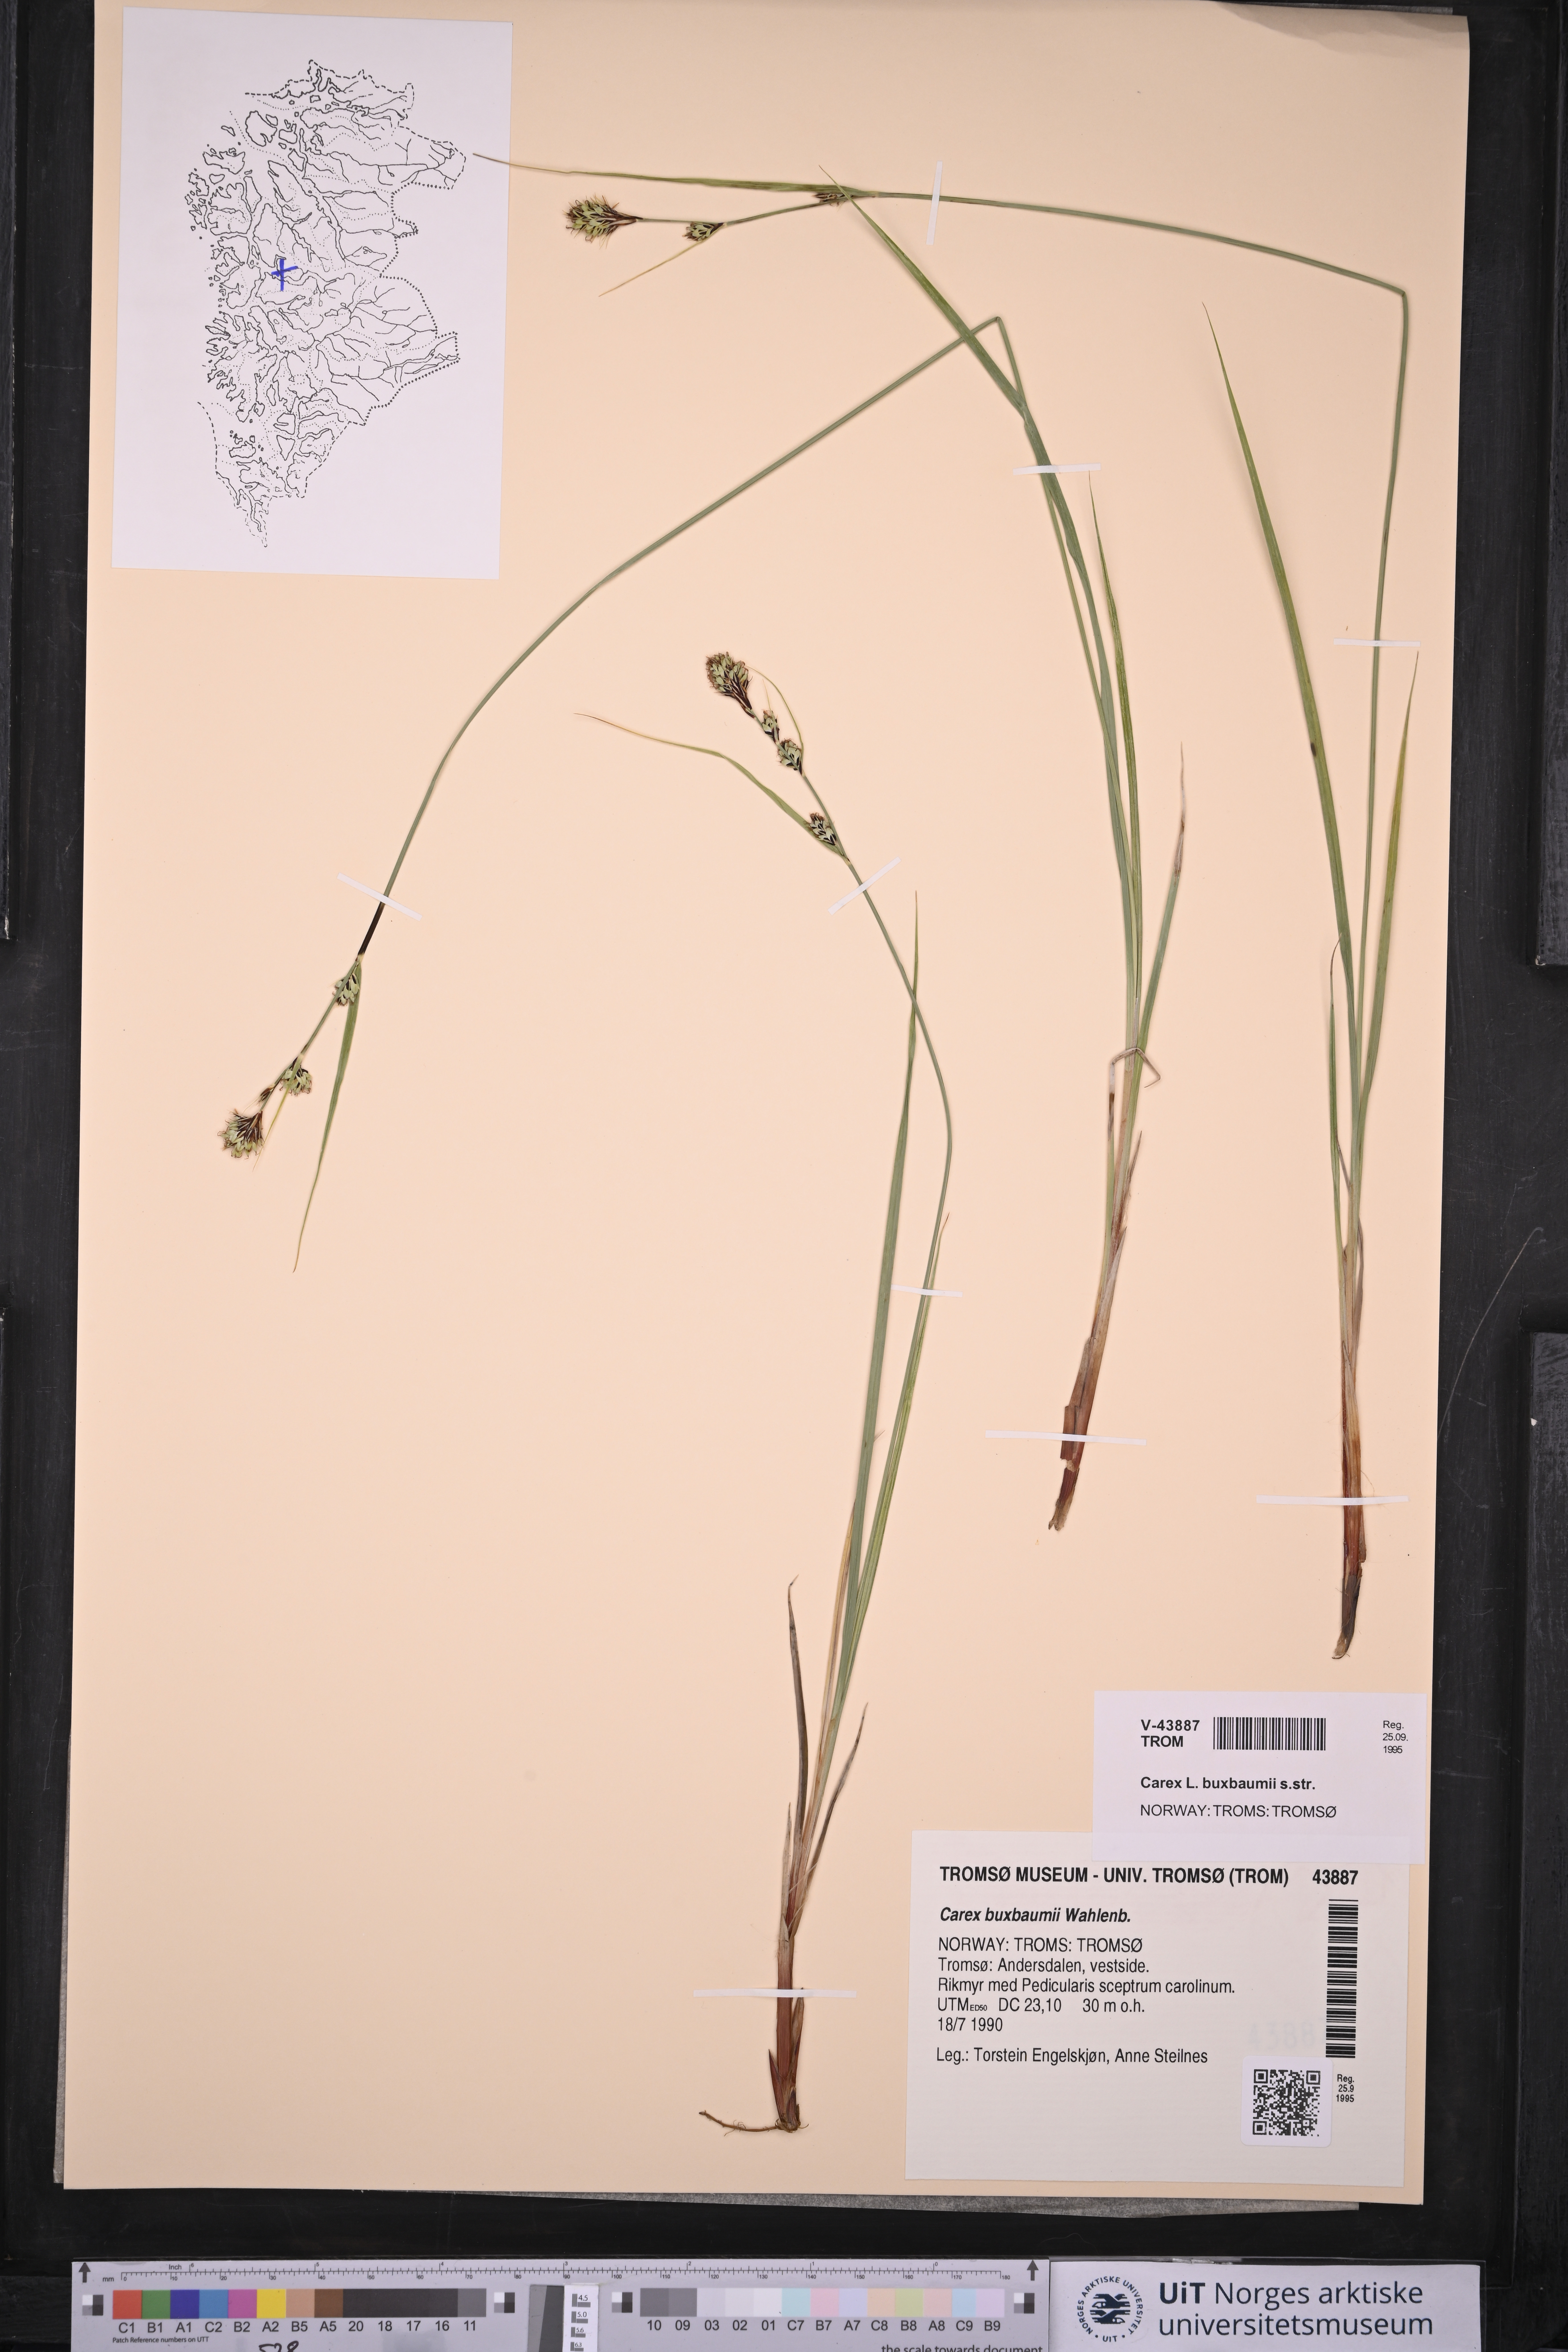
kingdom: Plantae
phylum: Tracheophyta
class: Liliopsida
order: Poales
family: Cyperaceae
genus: Carex
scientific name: Carex buxbaumii
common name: Club sedge
